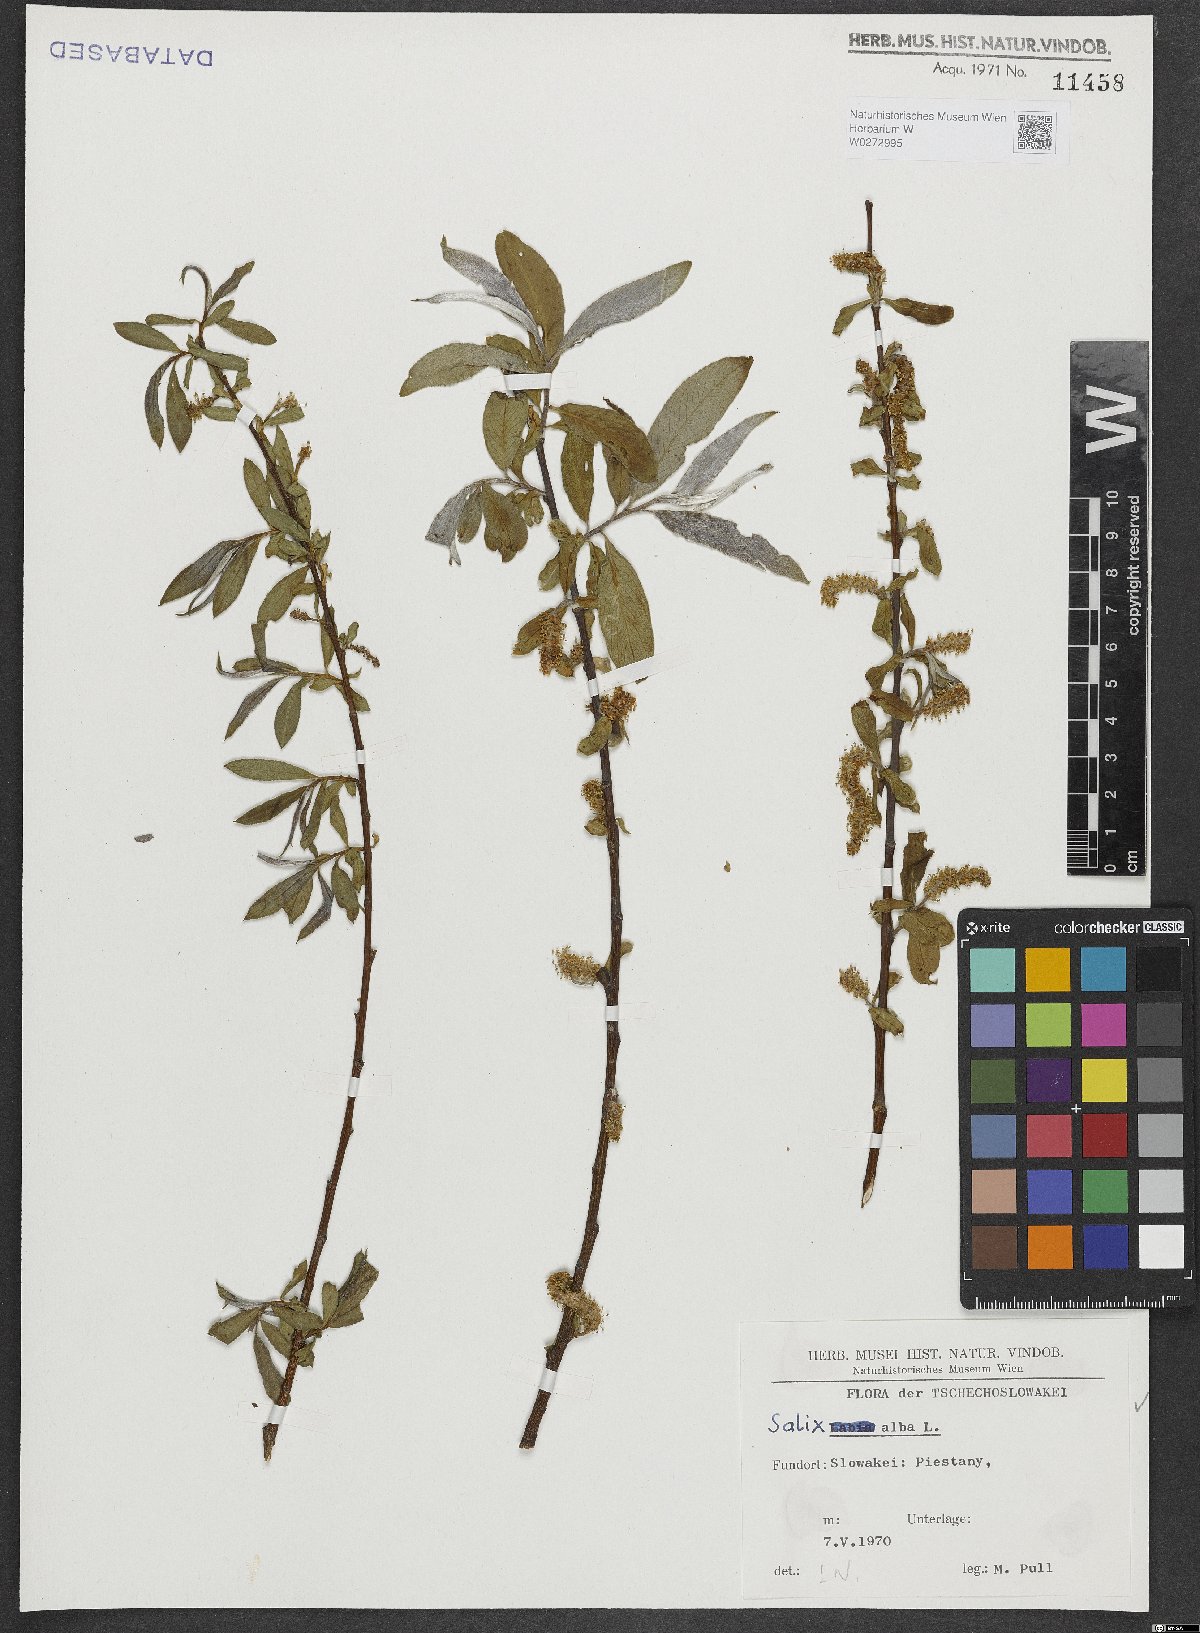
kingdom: Plantae
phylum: Tracheophyta
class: Magnoliopsida
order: Malpighiales
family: Salicaceae
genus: Salix
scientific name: Salix alba
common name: White willow
